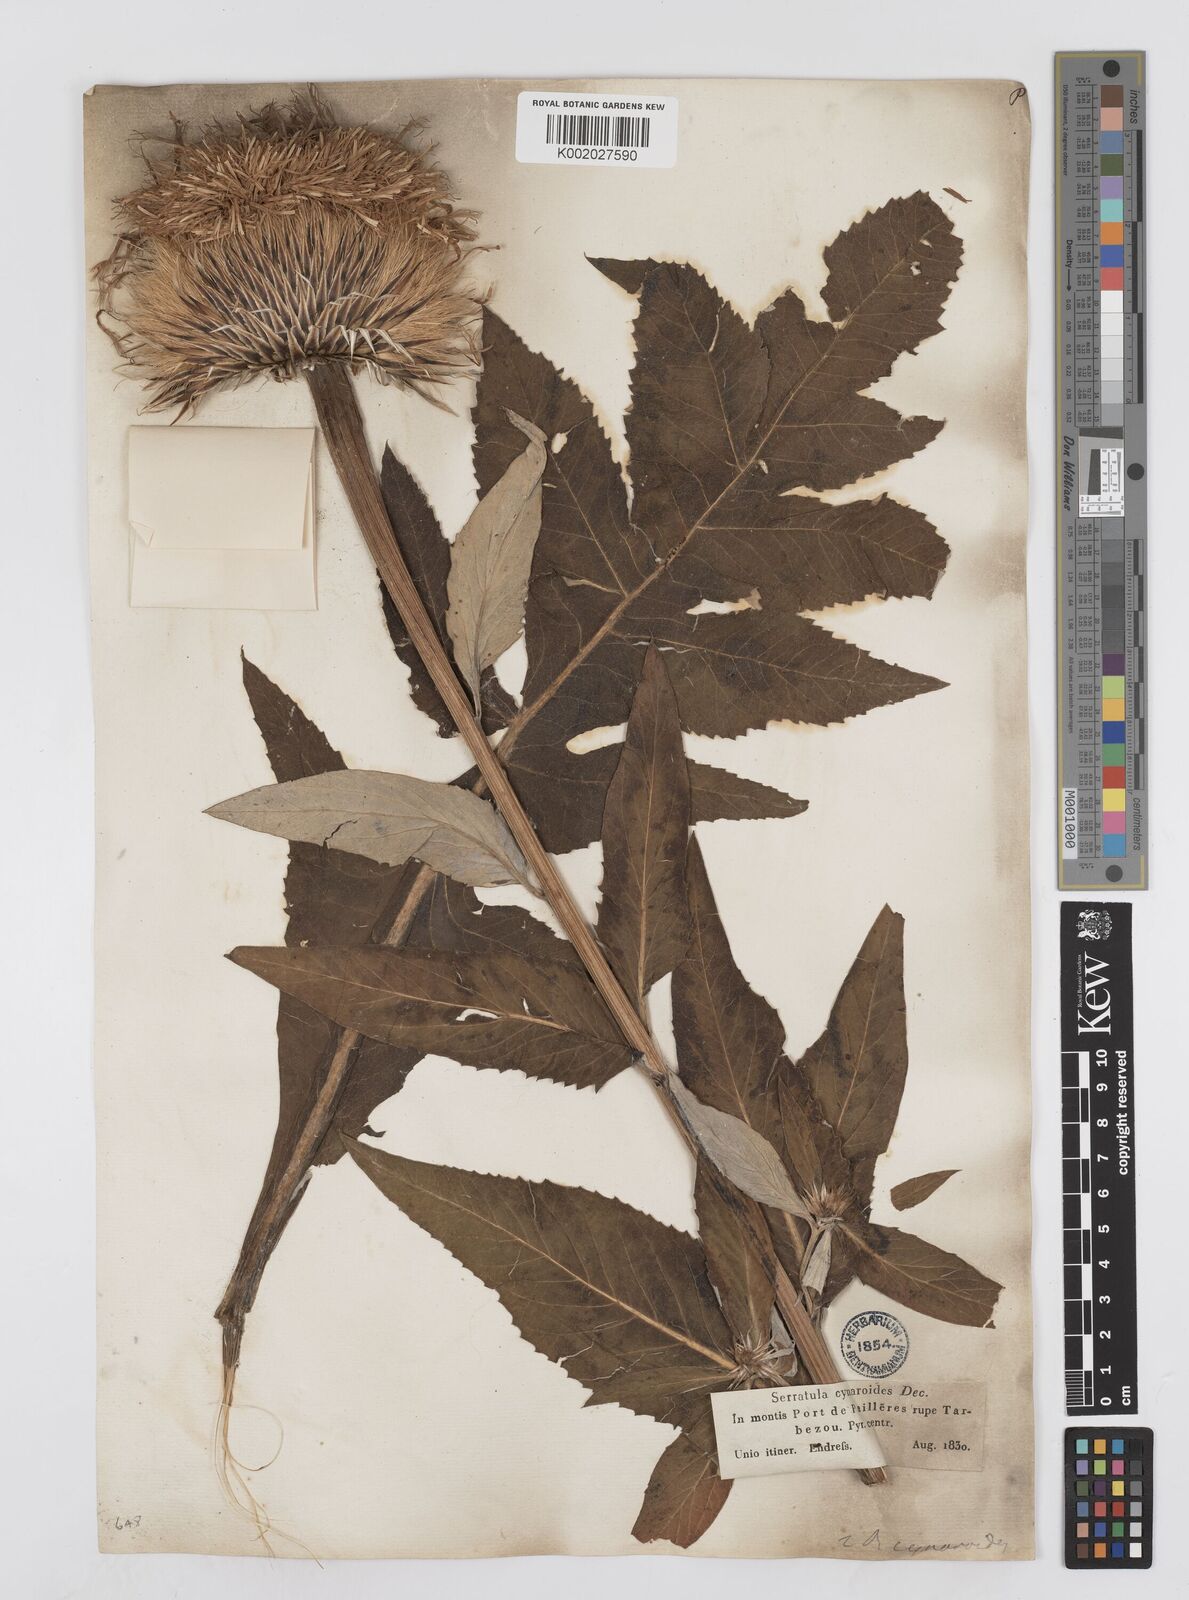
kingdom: Plantae
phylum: Tracheophyta
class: Magnoliopsida
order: Asterales
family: Asteraceae
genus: Leuzea
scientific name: Leuzea centauroides
